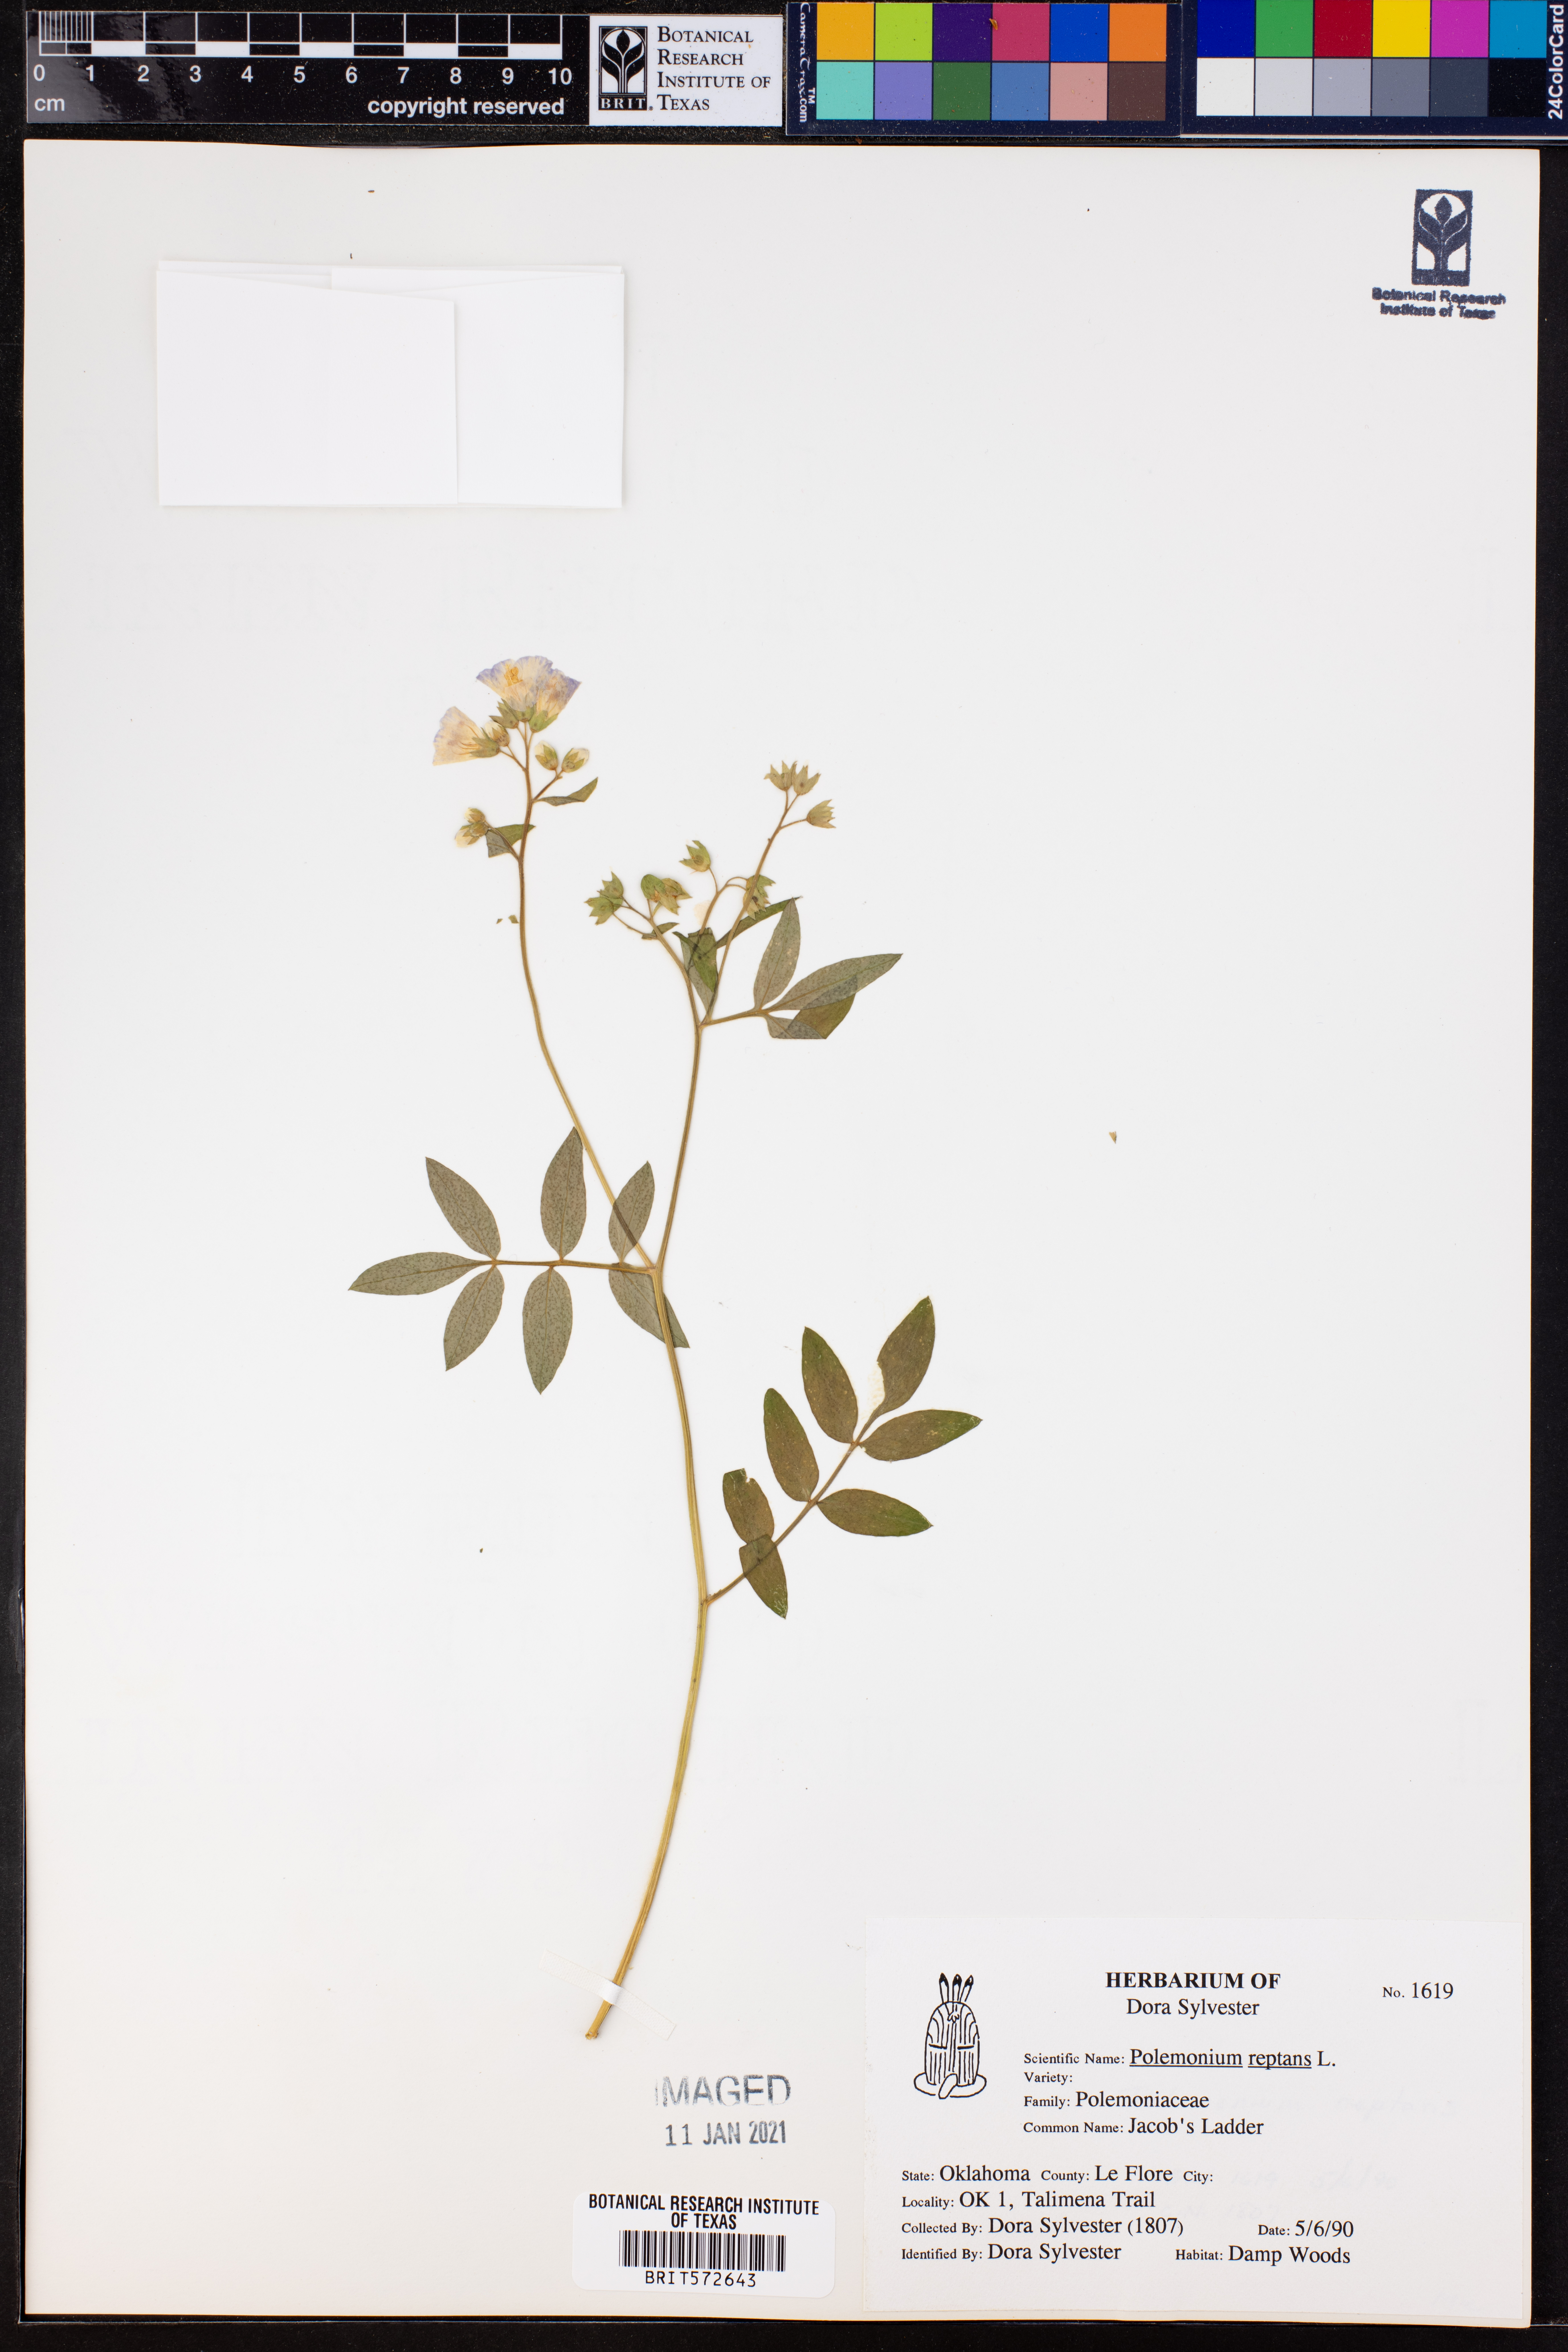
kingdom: Plantae
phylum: Tracheophyta
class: Magnoliopsida
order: Ericales
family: Polemoniaceae
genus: Polemonium
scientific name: Polemonium reptans
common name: Creeping jacob's-ladder
